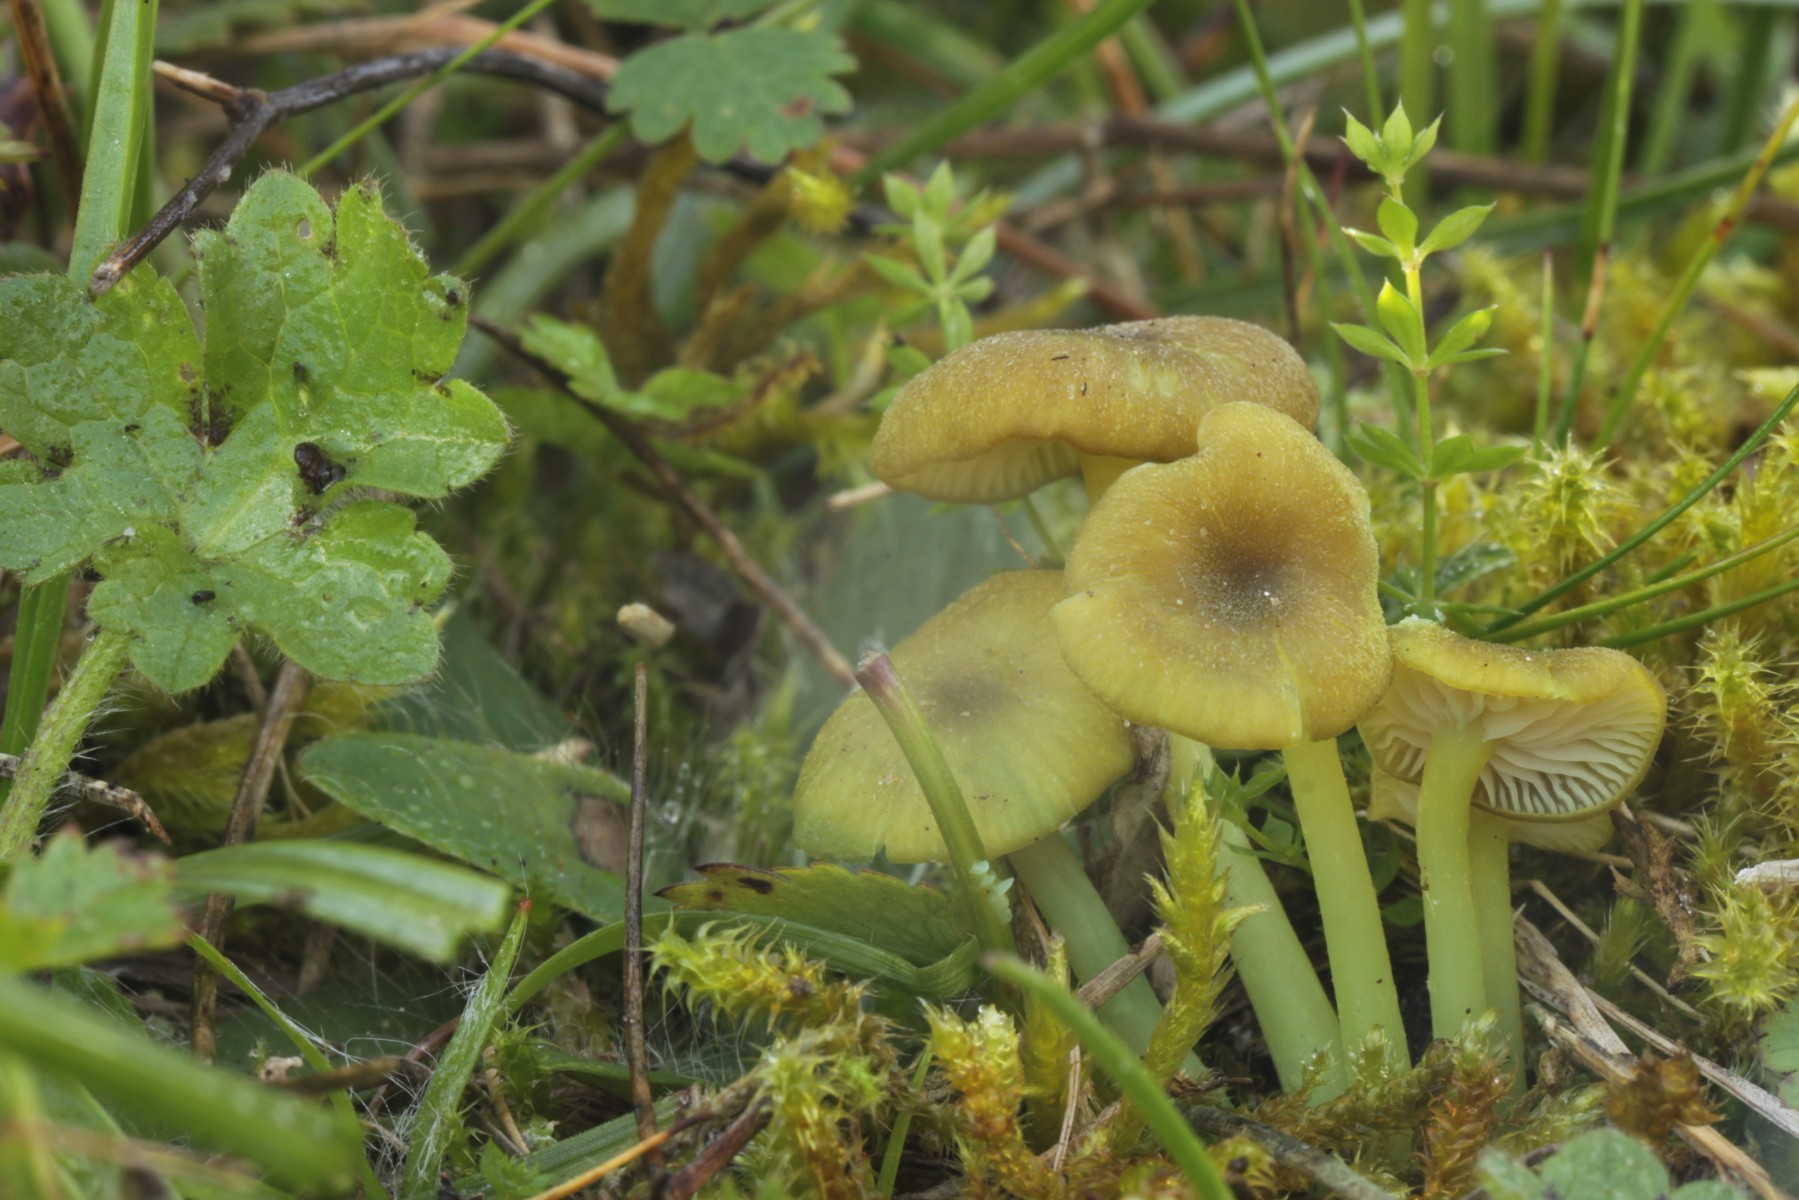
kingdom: Fungi
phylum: Basidiomycota
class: Agaricomycetes
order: Agaricales
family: Entolomataceae
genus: Entoloma
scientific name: Entoloma incanum
